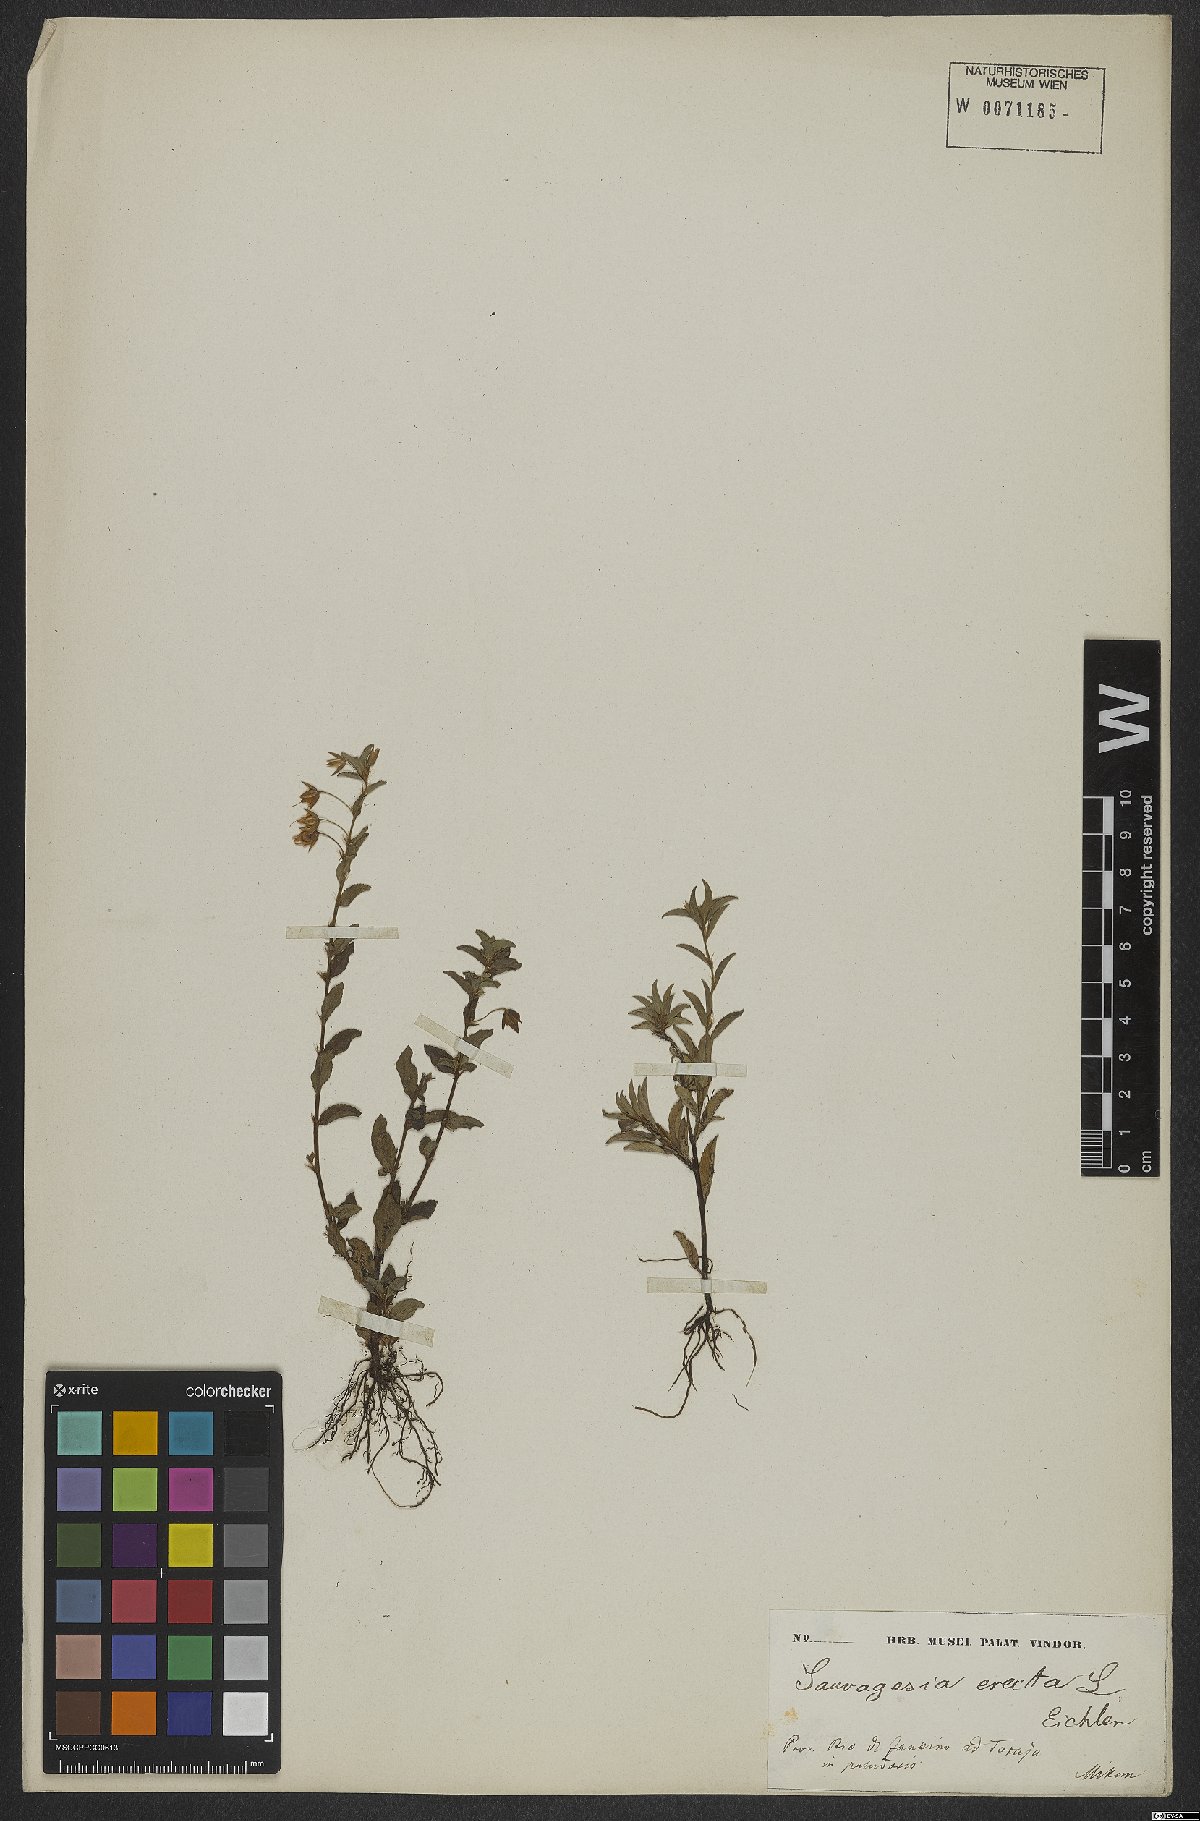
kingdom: Plantae
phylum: Tracheophyta
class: Magnoliopsida
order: Malpighiales
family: Ochnaceae
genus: Sauvagesia
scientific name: Sauvagesia erecta
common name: Creole tea
